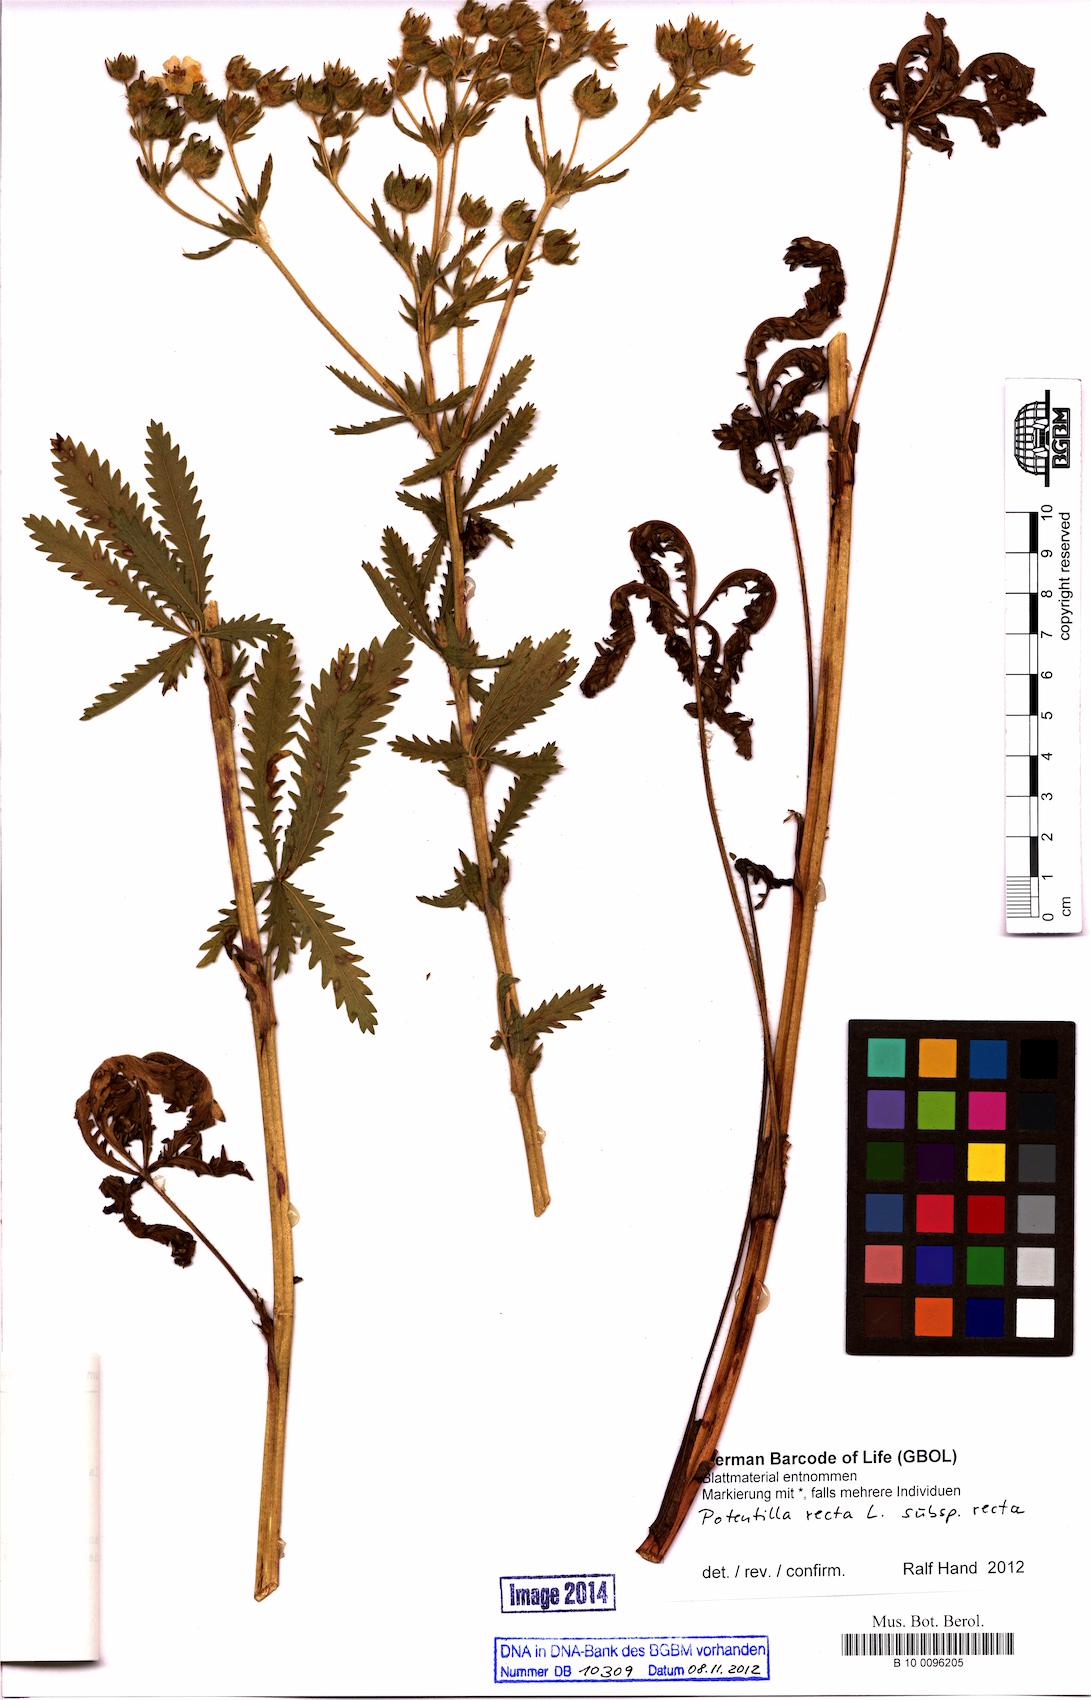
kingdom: Plantae
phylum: Tracheophyta
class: Magnoliopsida
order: Rosales
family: Rosaceae
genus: Potentilla
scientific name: Potentilla recta
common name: Sulphur cinquefoil
